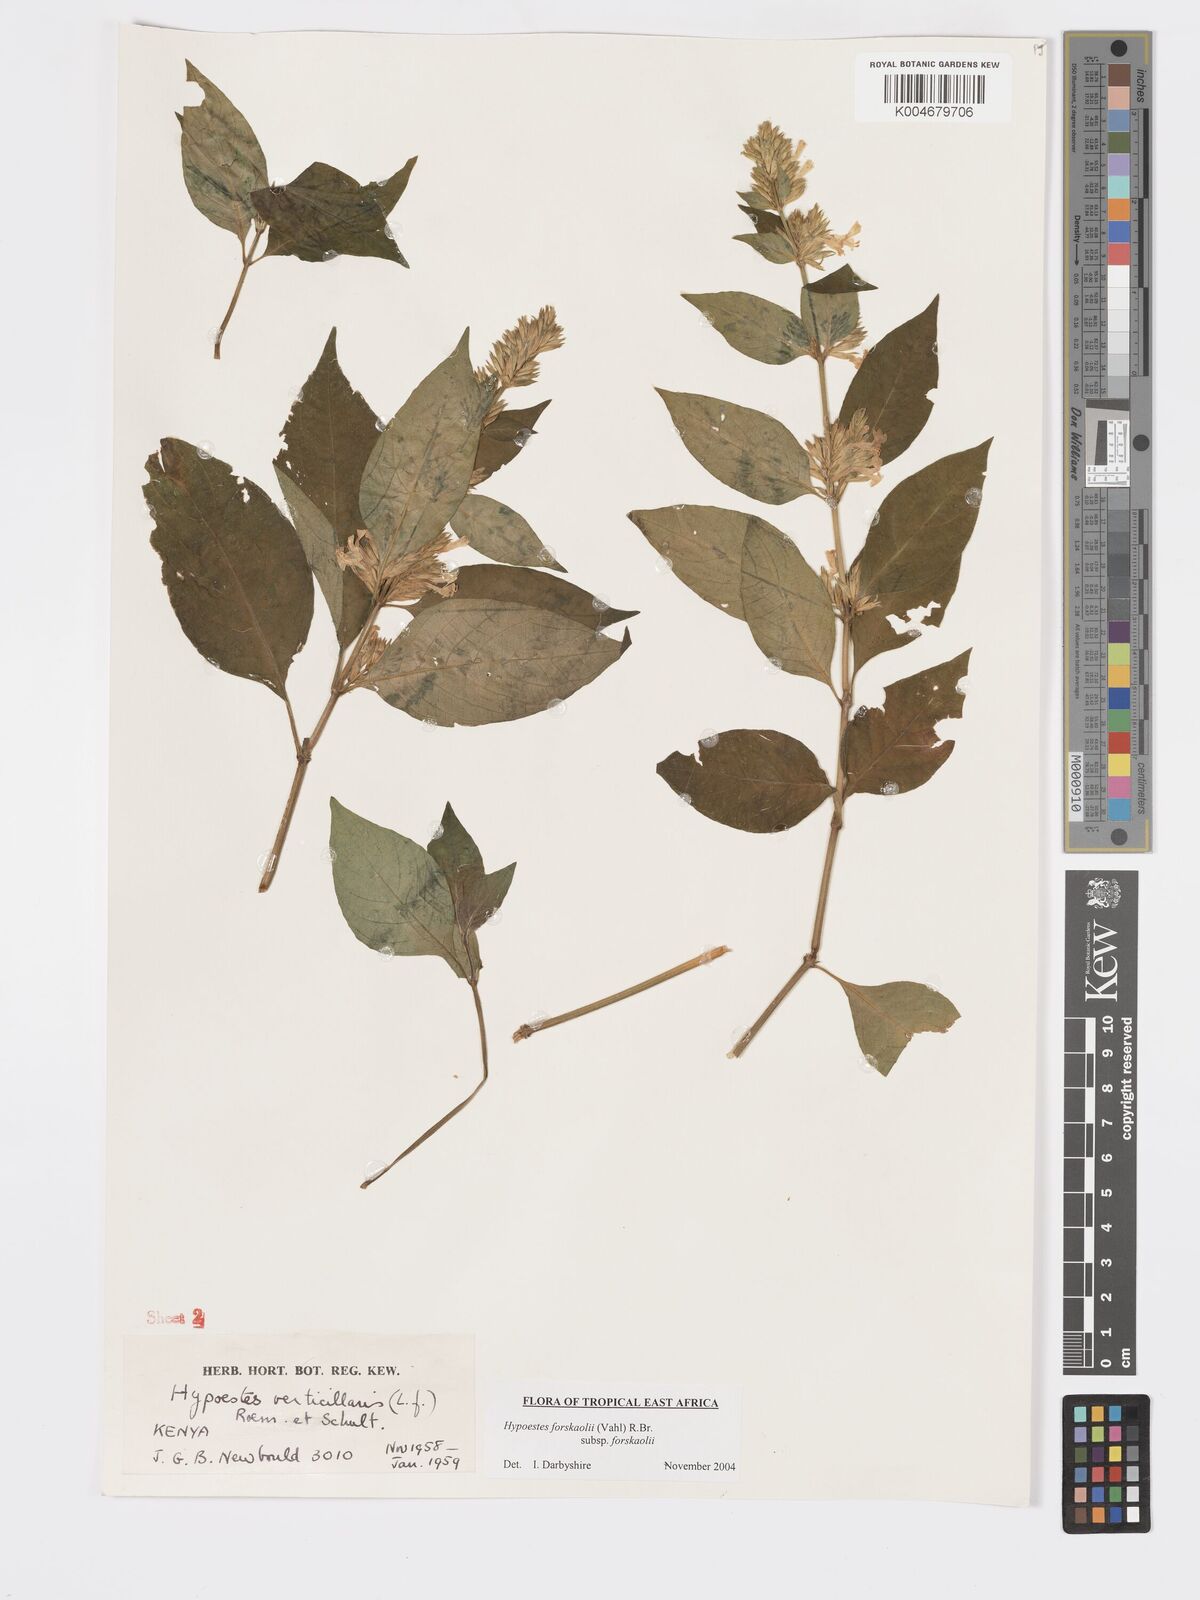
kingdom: Plantae
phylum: Tracheophyta
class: Magnoliopsida
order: Lamiales
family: Acanthaceae
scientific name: Acanthaceae
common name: Acanthaceae
